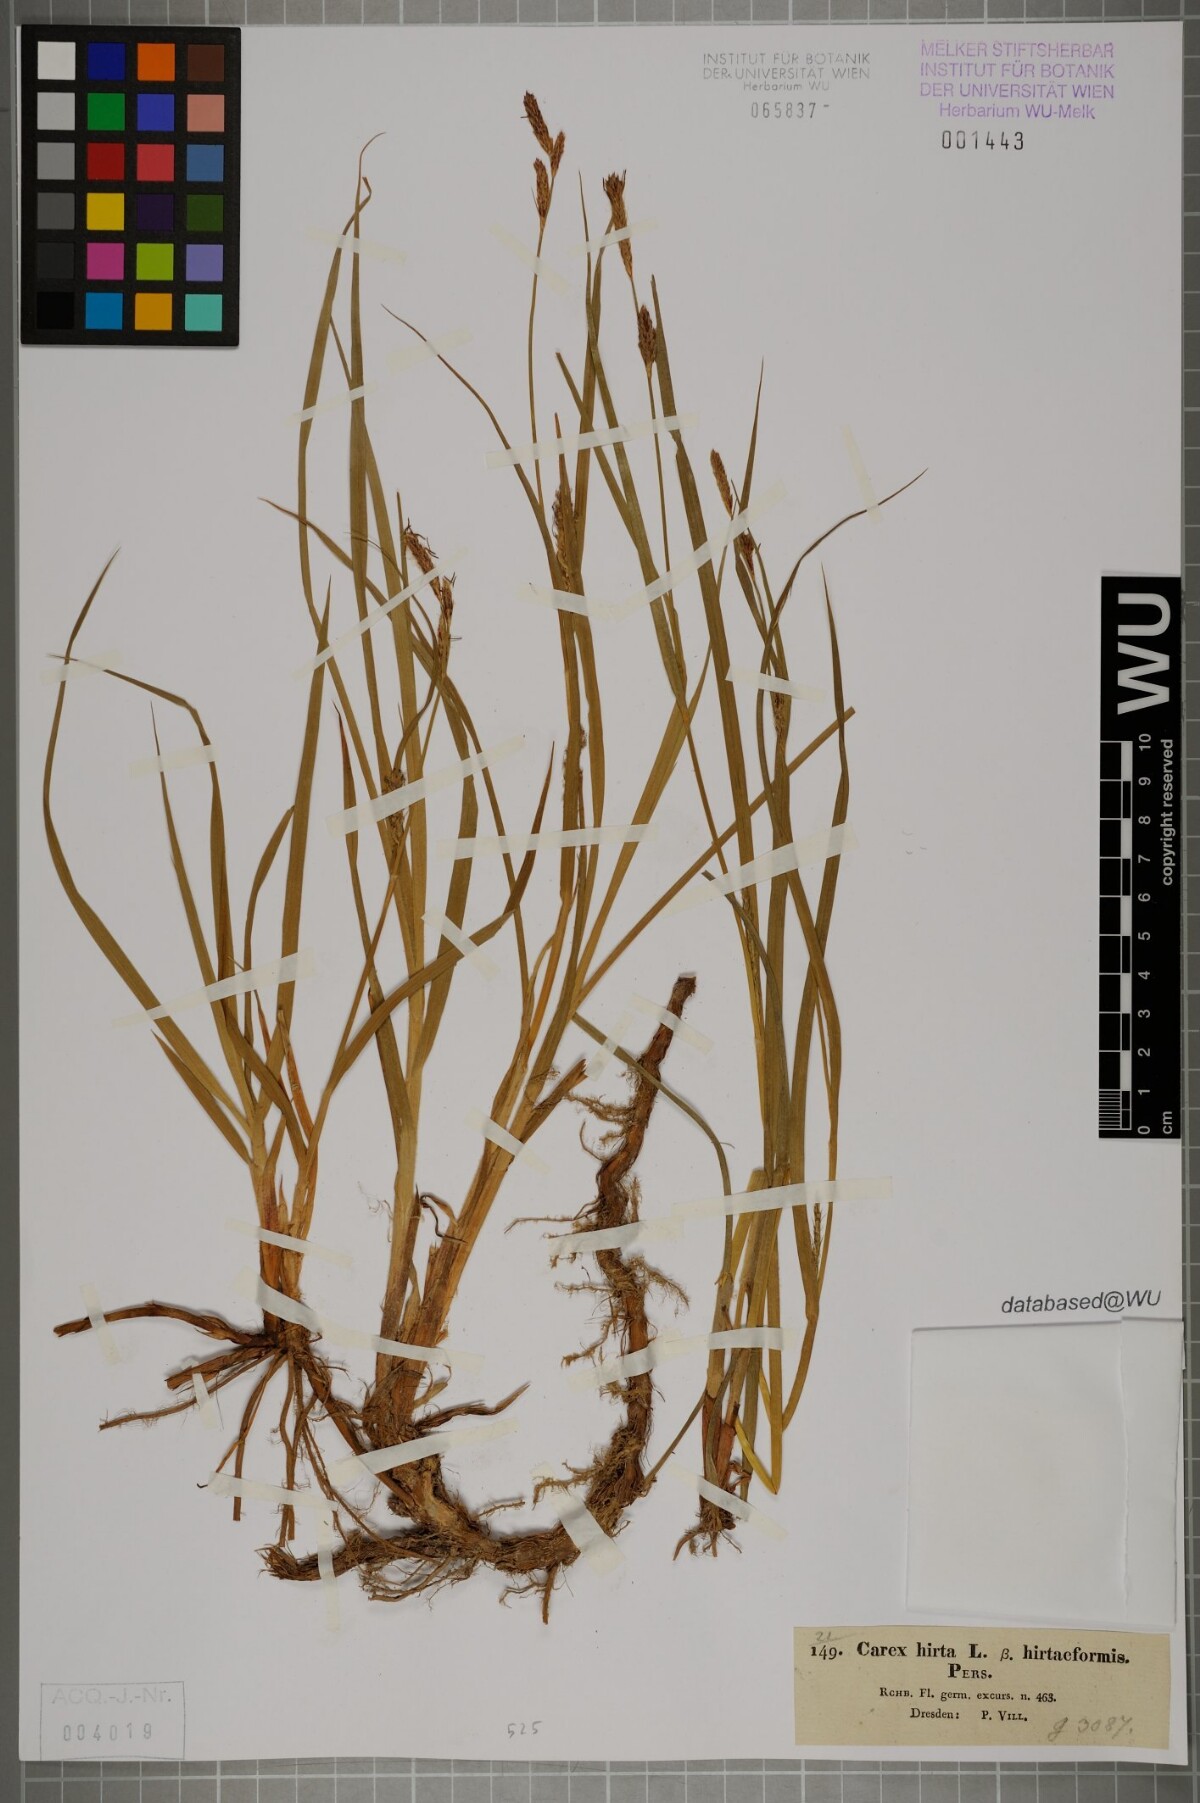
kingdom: Plantae
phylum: Tracheophyta
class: Liliopsida
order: Poales
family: Cyperaceae
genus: Carex
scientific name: Carex hirta
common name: Hairy sedge
